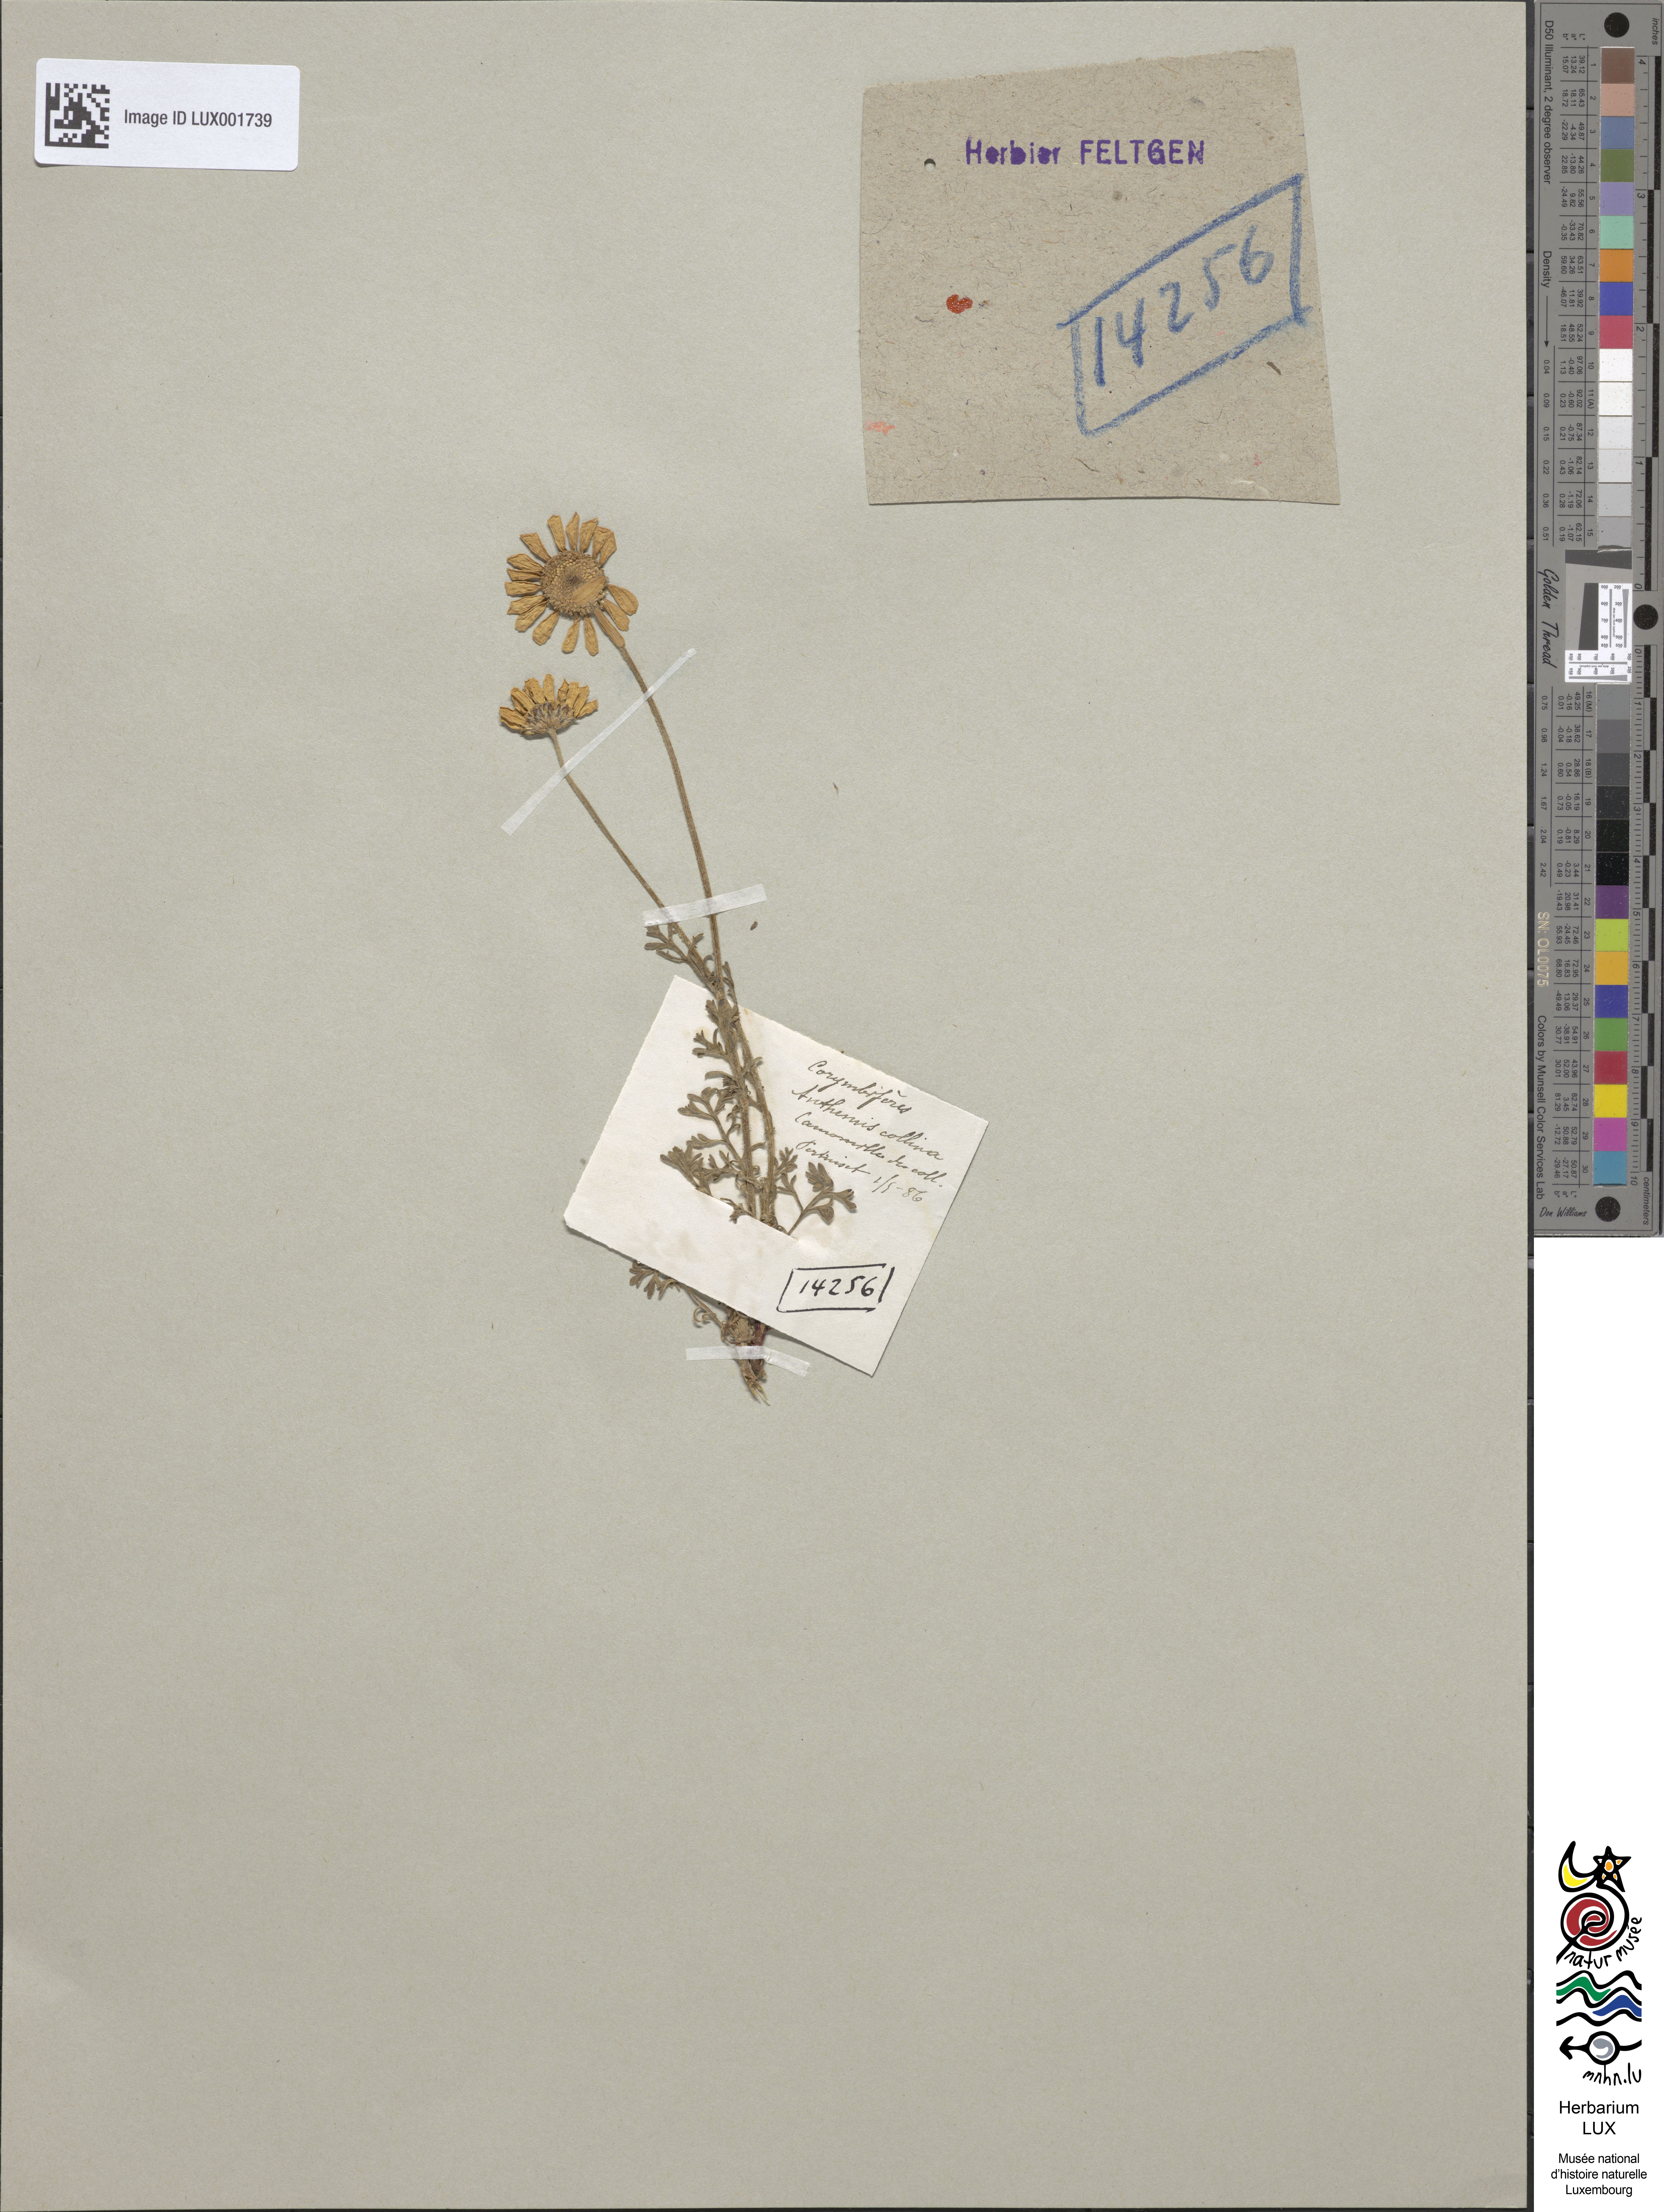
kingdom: Plantae
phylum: Tracheophyta
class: Magnoliopsida
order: Asterales
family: Asteraceae
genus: Anthemis
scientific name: Anthemis cretica
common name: Mountain dog-daisy
